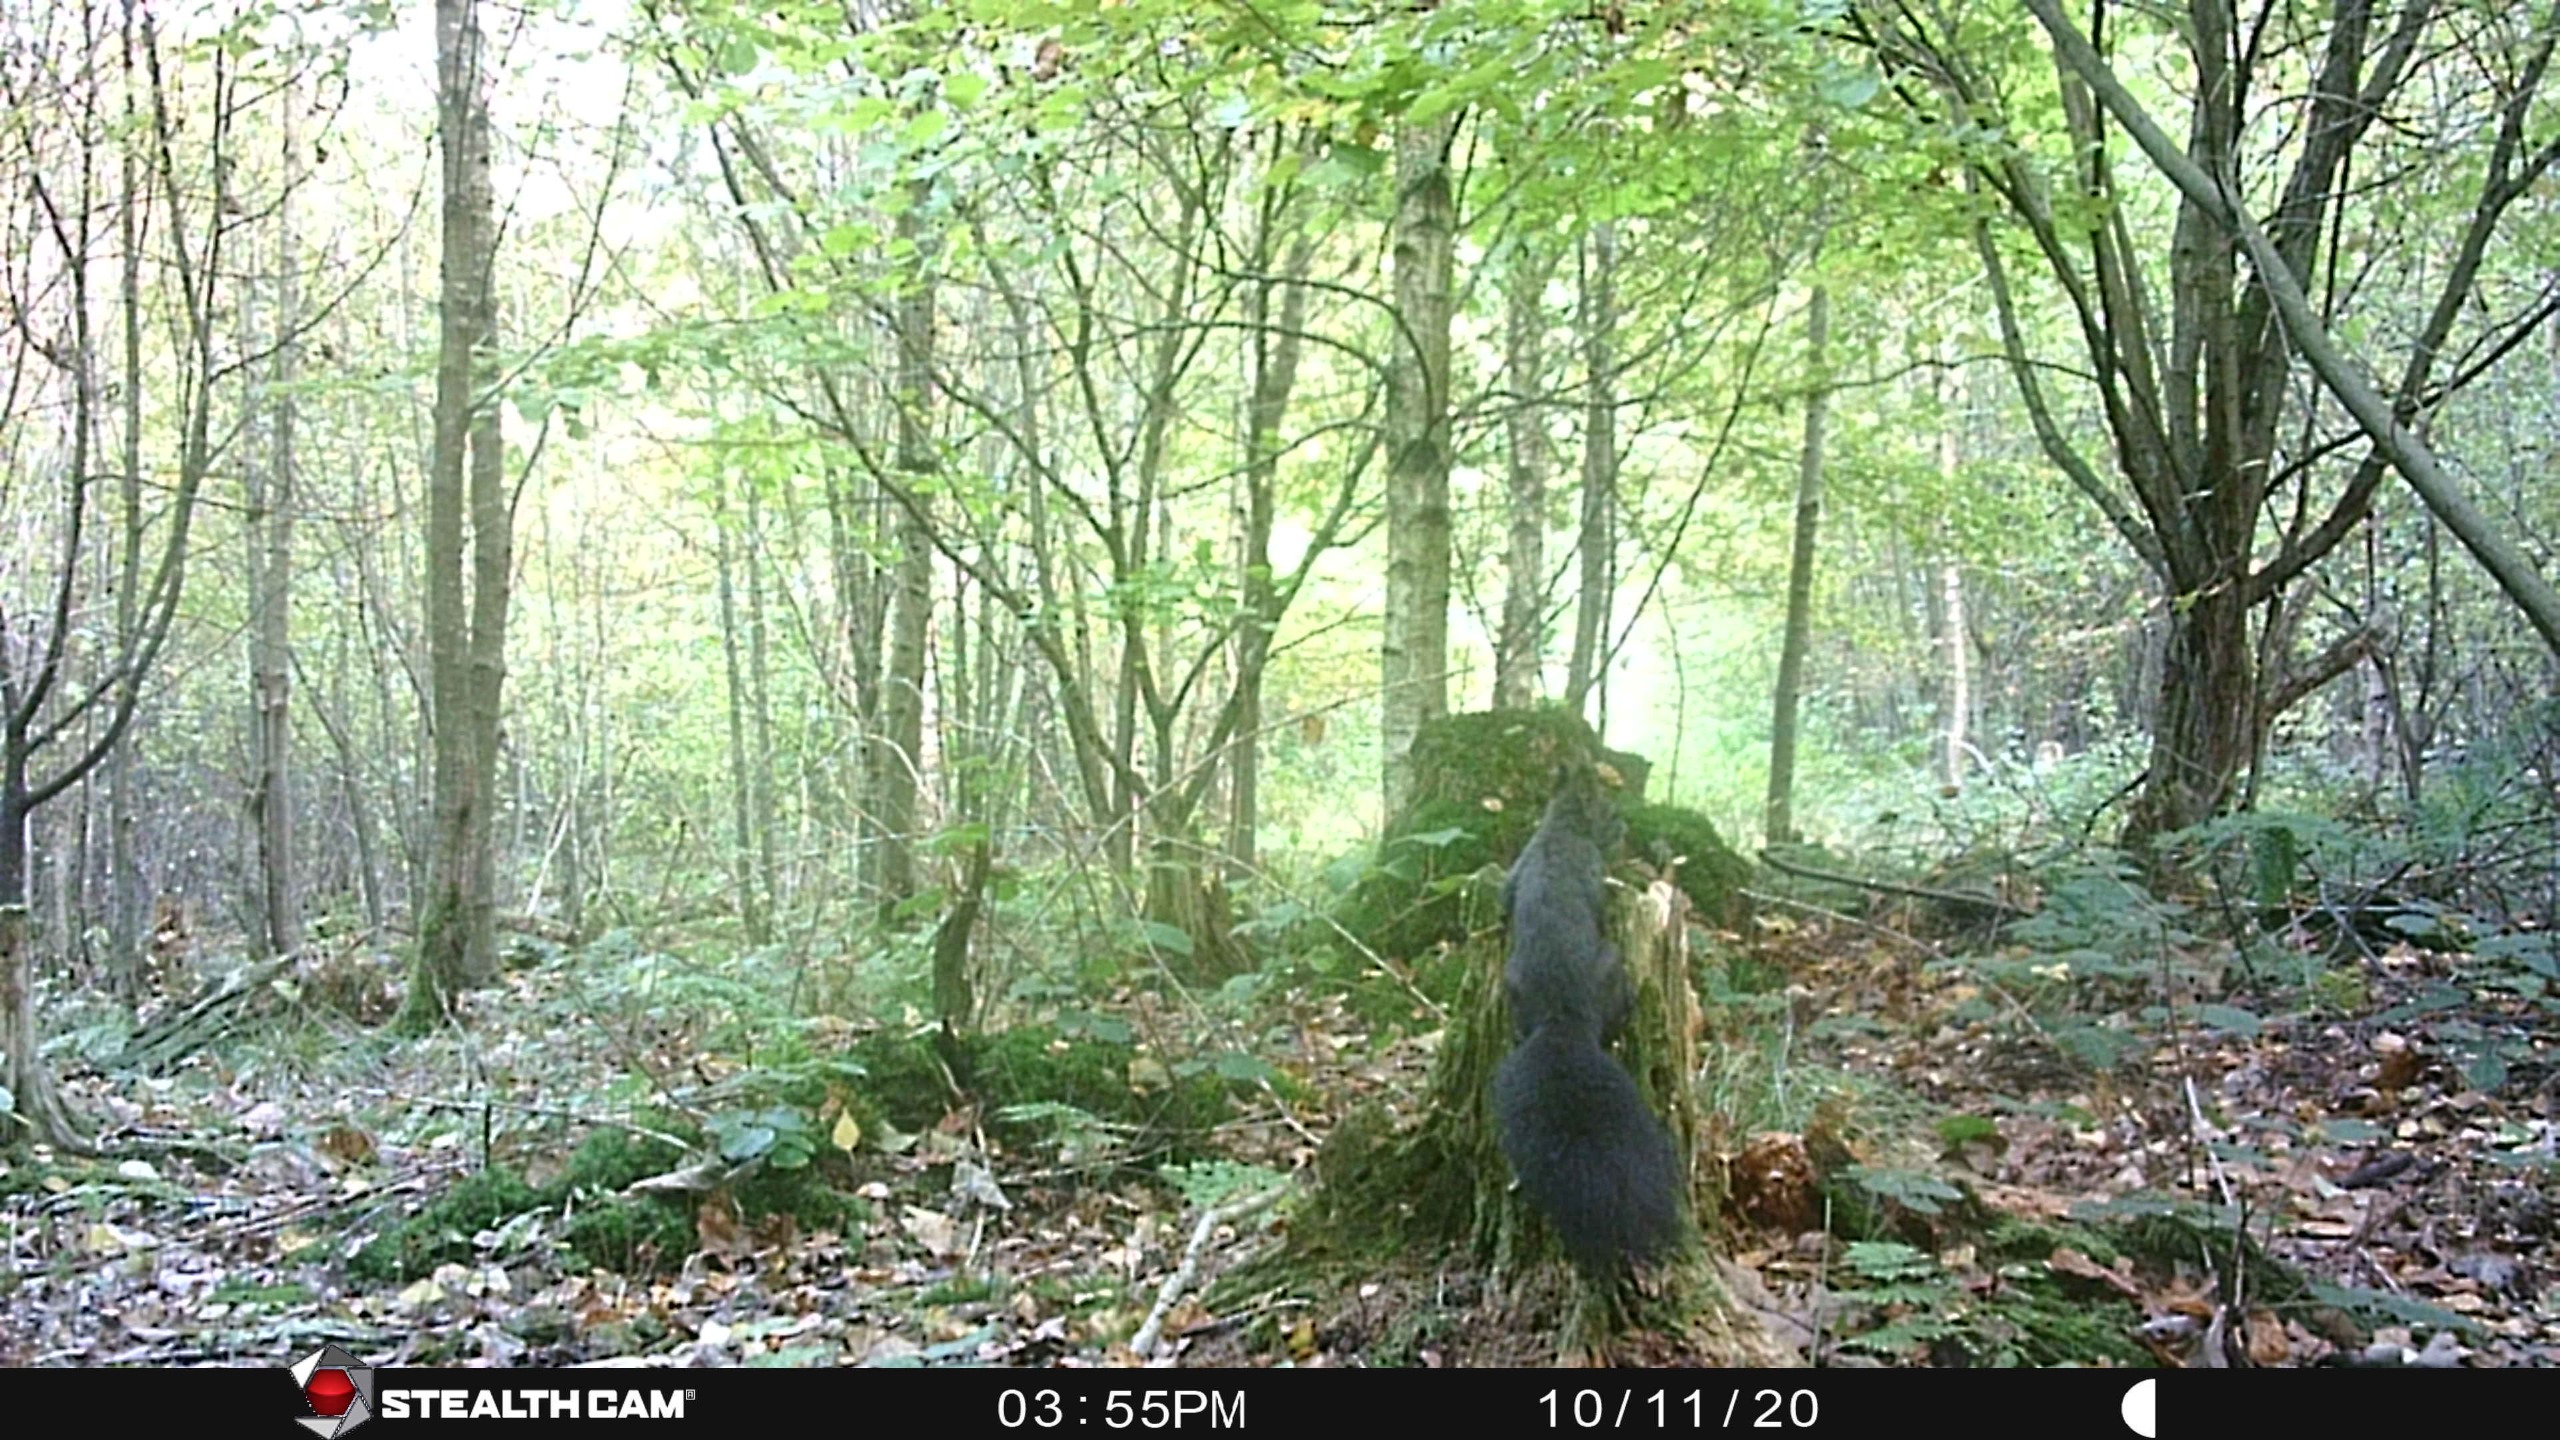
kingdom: Animalia
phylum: Chordata
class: Mammalia
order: Rodentia
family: Sciuridae
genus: Sciurus
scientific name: Sciurus vulgaris
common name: Egern
